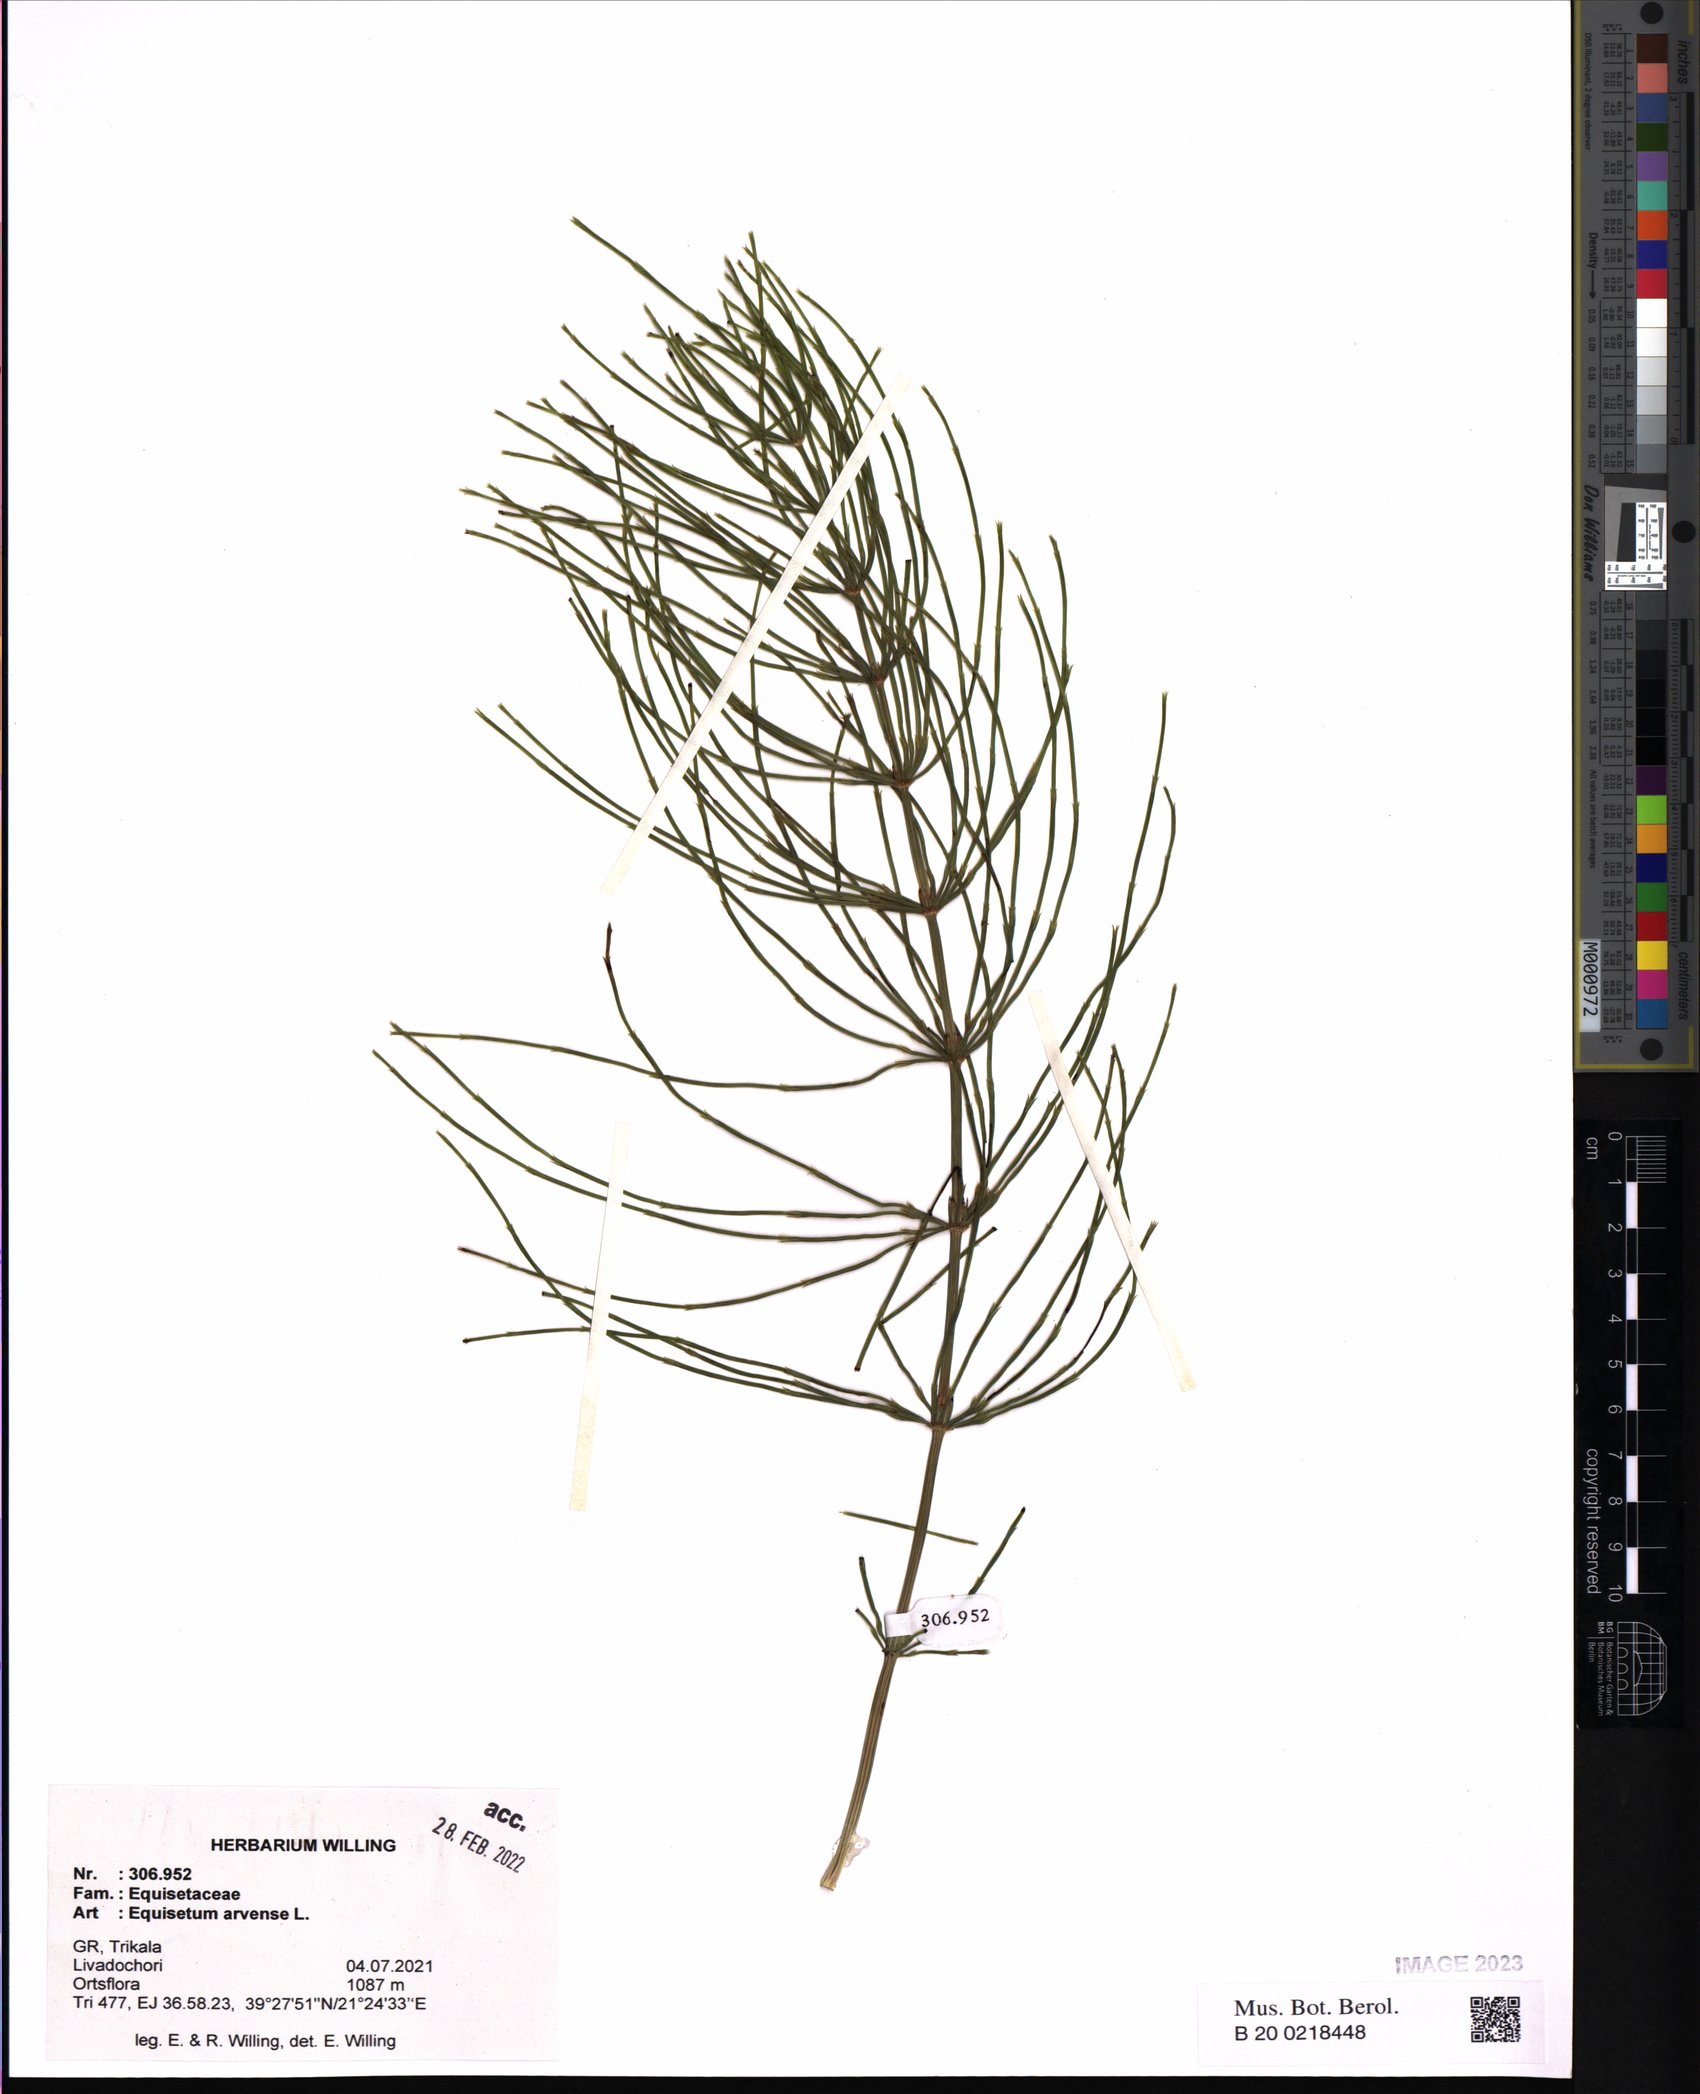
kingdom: Plantae
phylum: Tracheophyta
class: Polypodiopsida
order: Equisetales
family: Equisetaceae
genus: Equisetum
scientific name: Equisetum arvense
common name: Field horsetail
